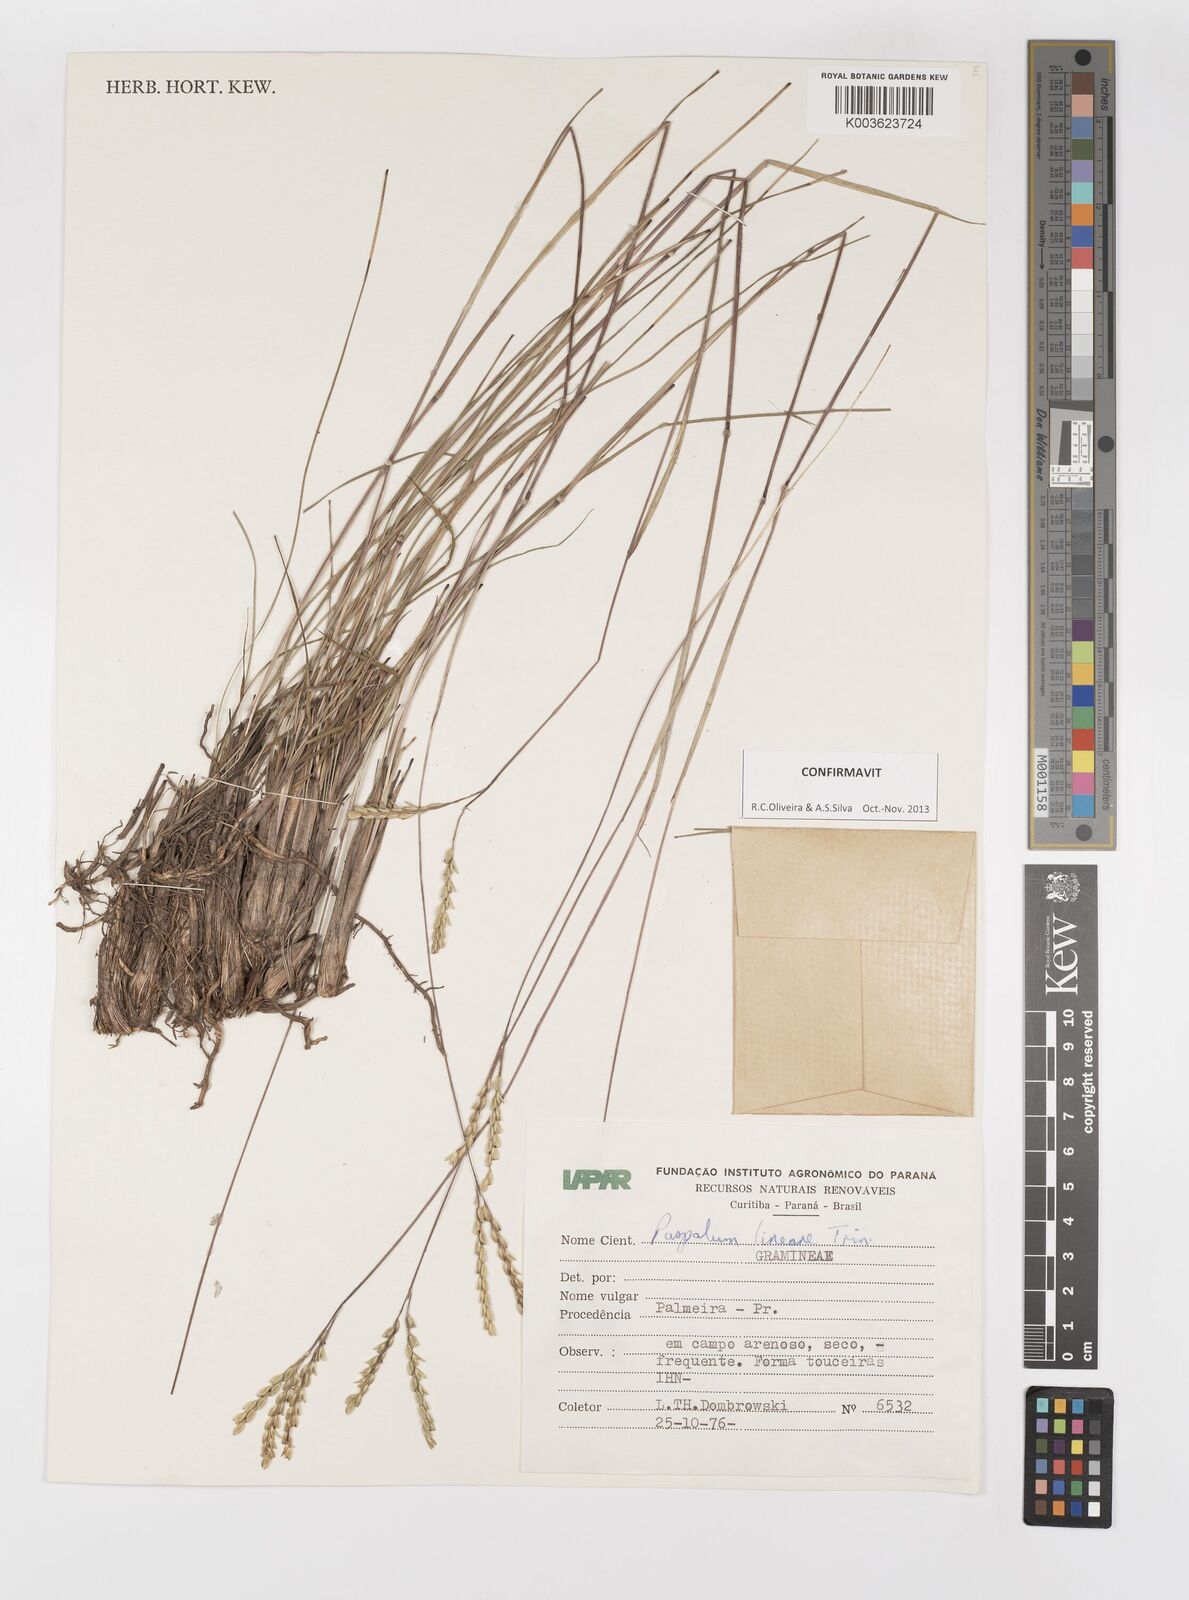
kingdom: Plantae
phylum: Tracheophyta
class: Liliopsida
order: Poales
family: Poaceae
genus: Paspalum
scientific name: Paspalum caespitosum
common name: Blue crowngrass
